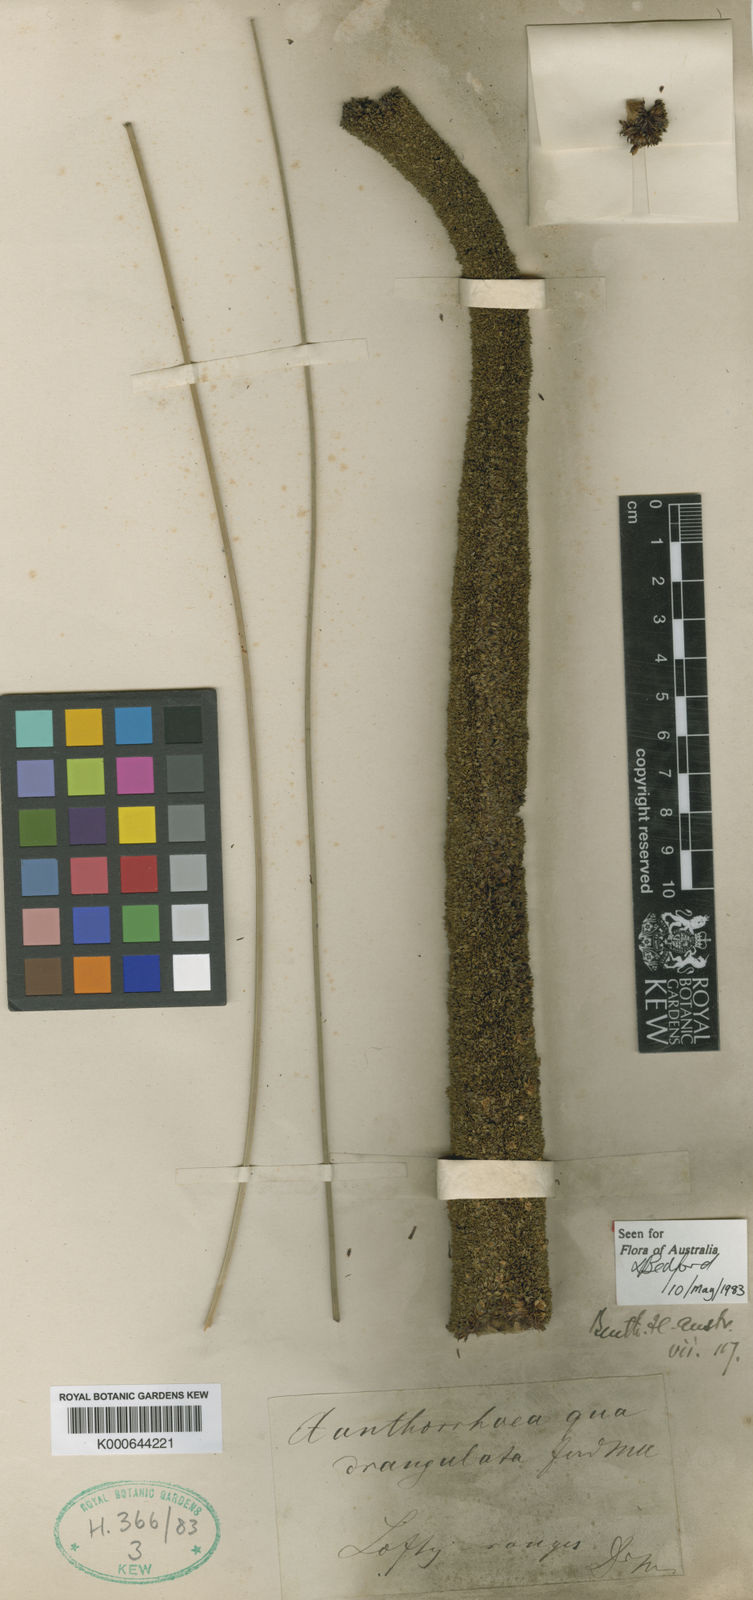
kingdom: Plantae
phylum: Tracheophyta
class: Liliopsida
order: Asparagales
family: Asphodelaceae
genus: Xanthorrhoea
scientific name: Xanthorrhoea quadrangulata
